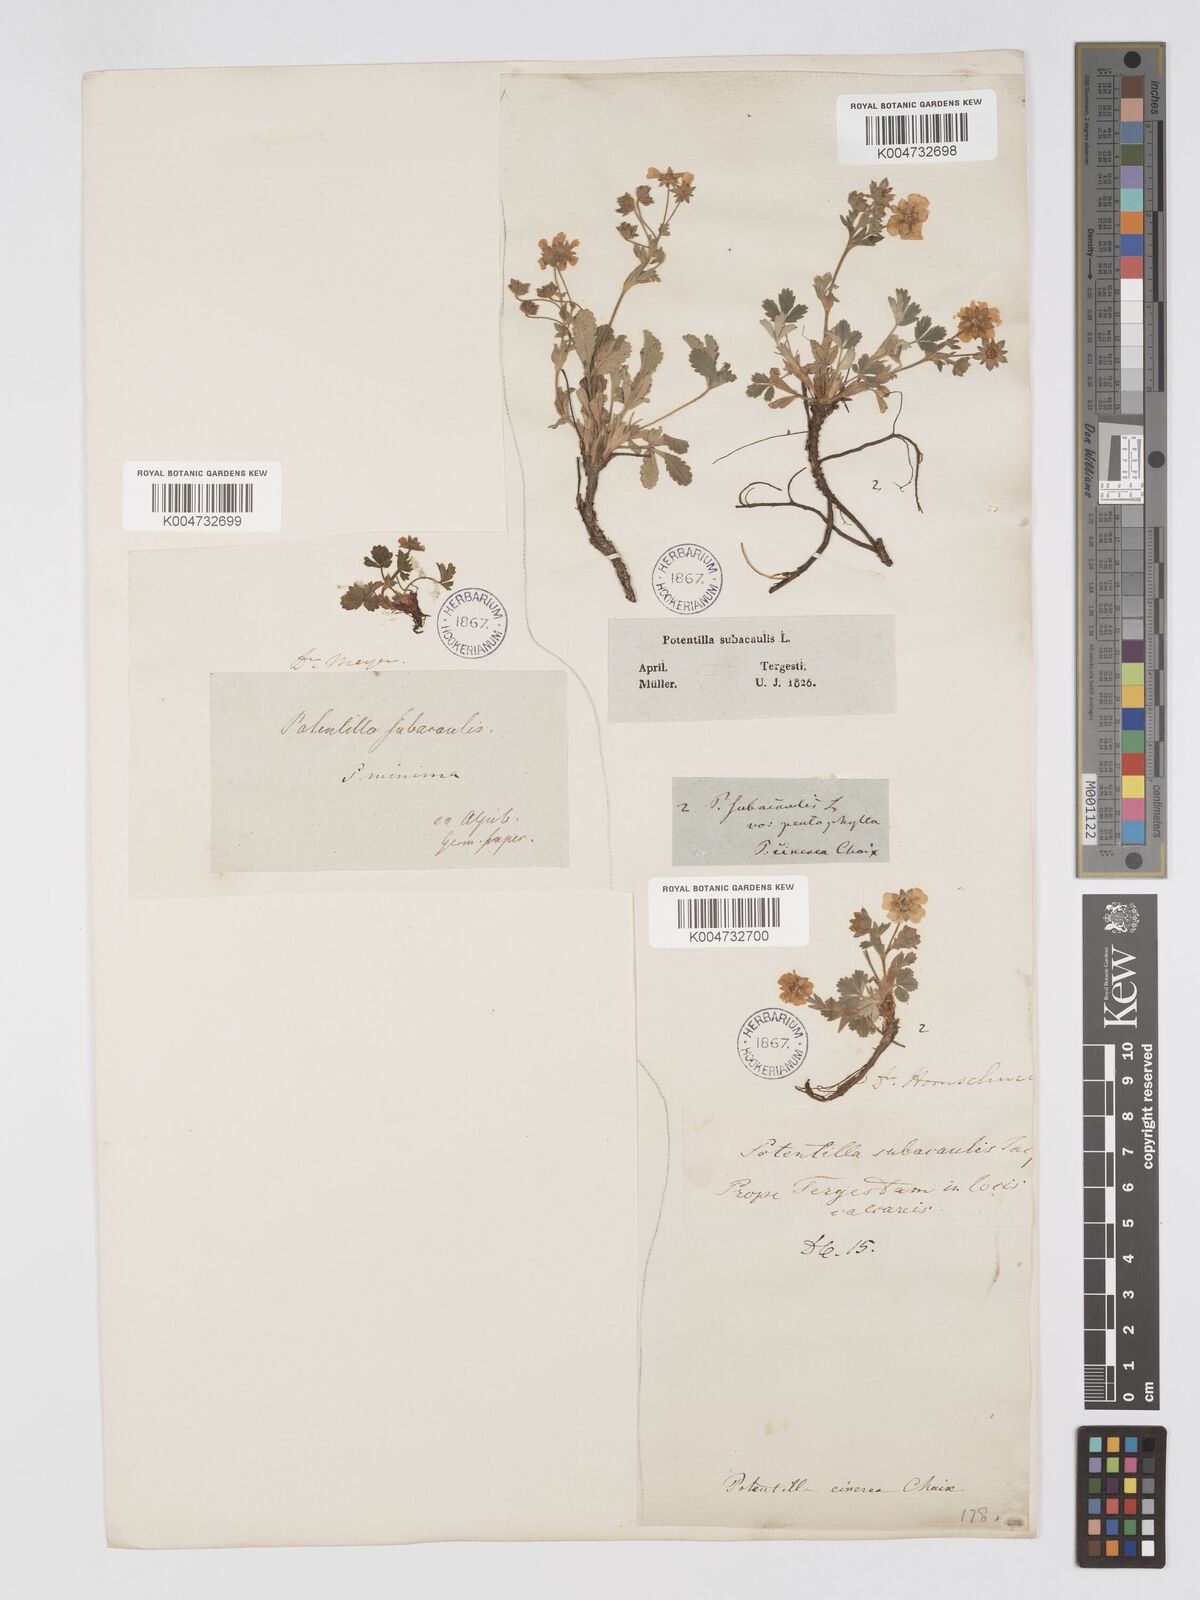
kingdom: Plantae
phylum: Tracheophyta
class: Magnoliopsida
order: Rosales
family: Rosaceae
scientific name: Rosaceae
